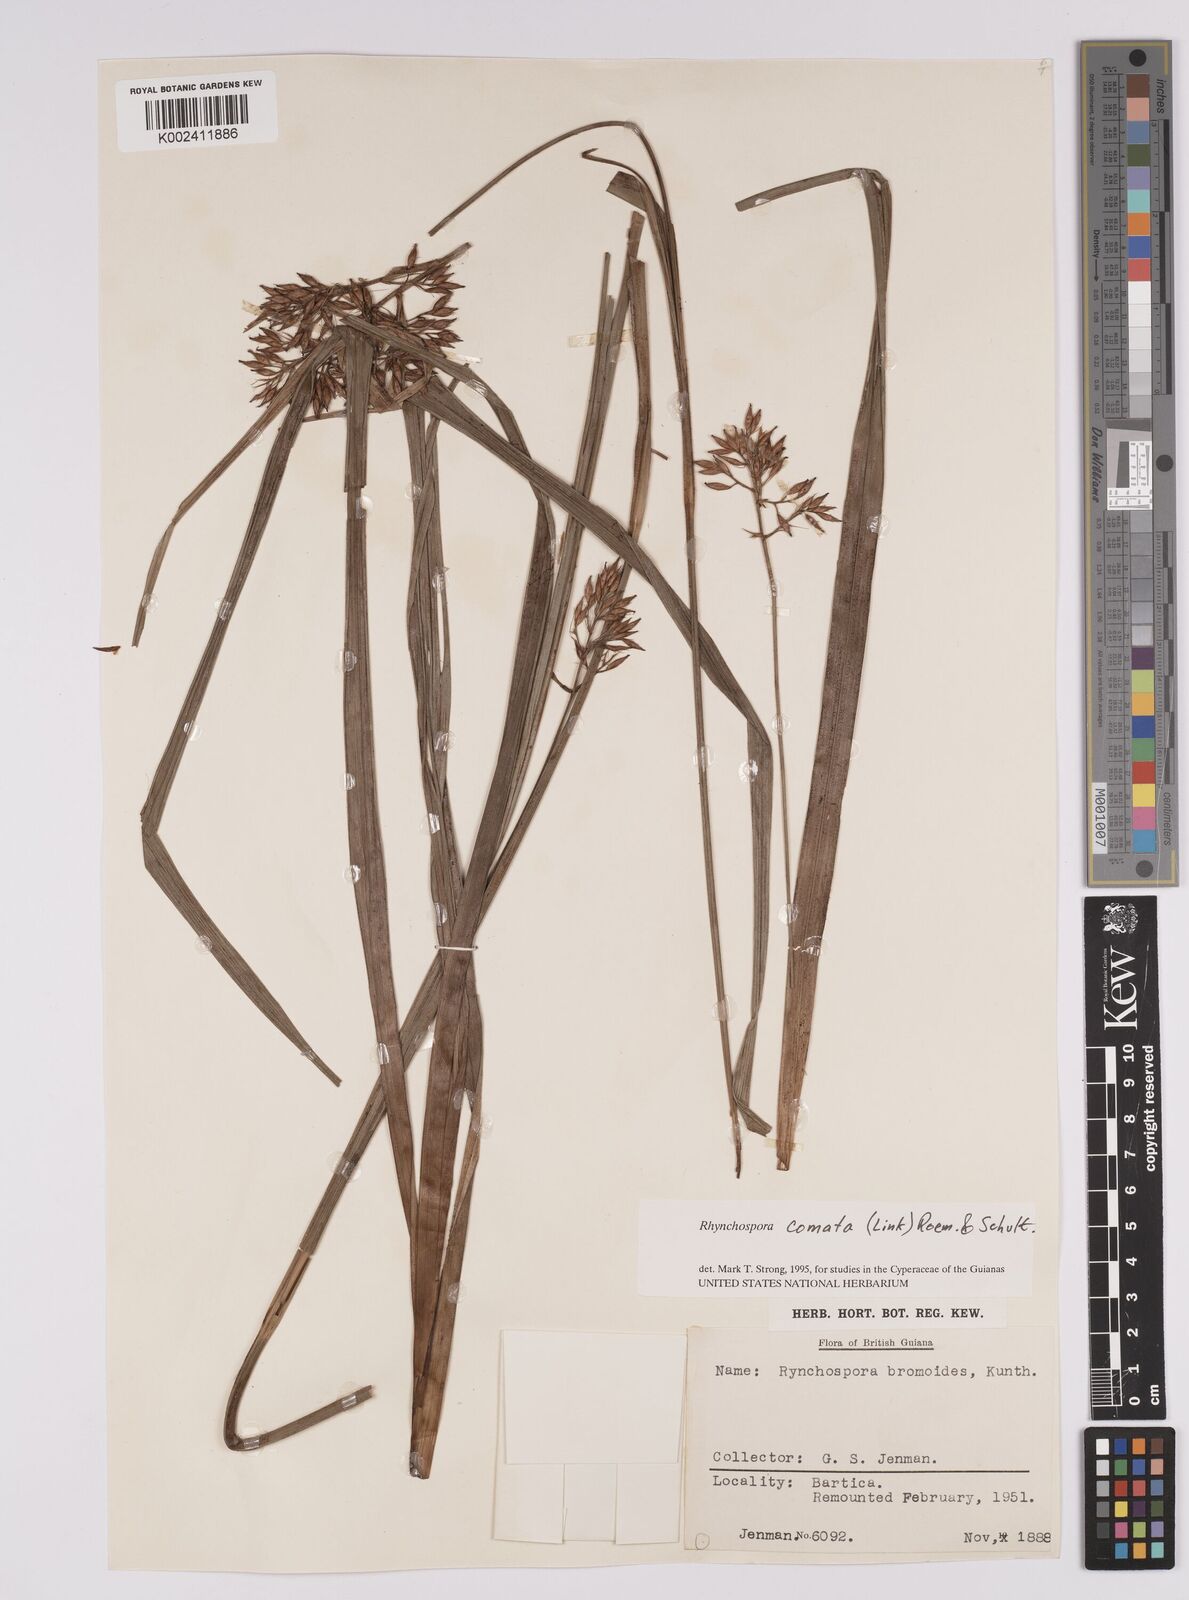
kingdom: Plantae
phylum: Tracheophyta
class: Liliopsida
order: Poales
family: Cyperaceae
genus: Rhynchospora
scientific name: Rhynchospora comata
